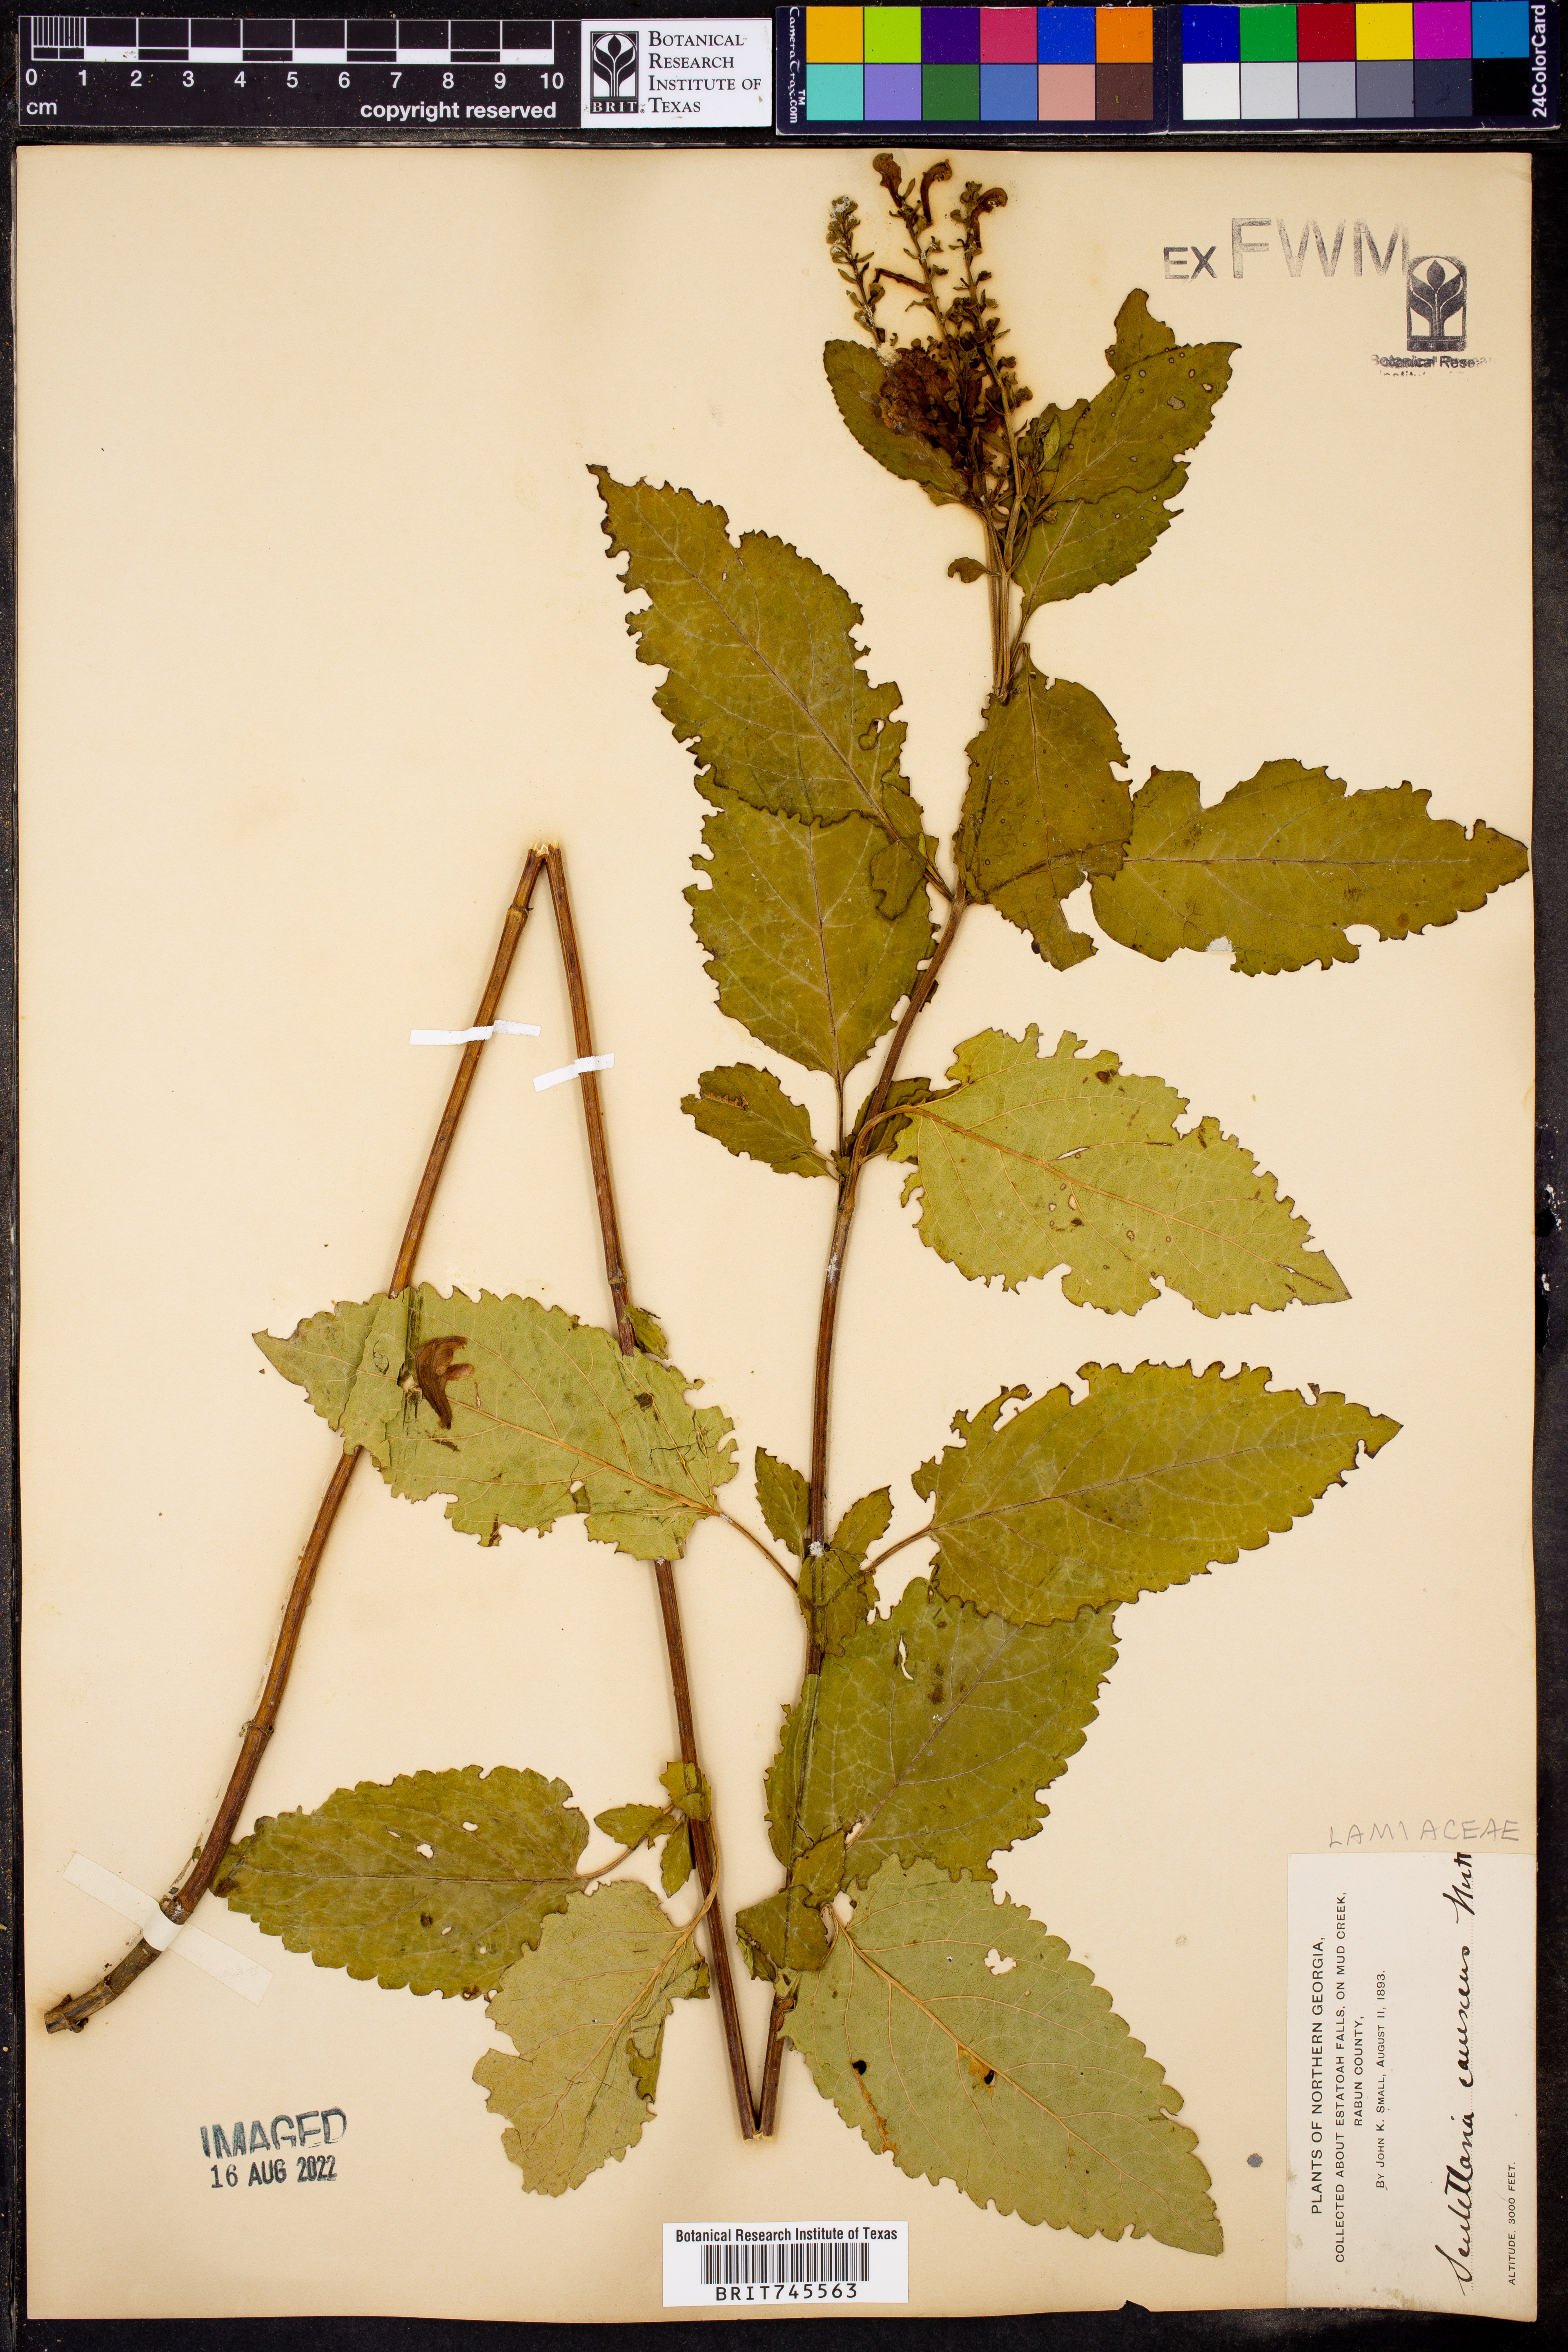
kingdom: Plantae
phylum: Tracheophyta
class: Magnoliopsida
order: Lamiales
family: Lamiaceae
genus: Scutellaria
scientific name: Scutellaria
